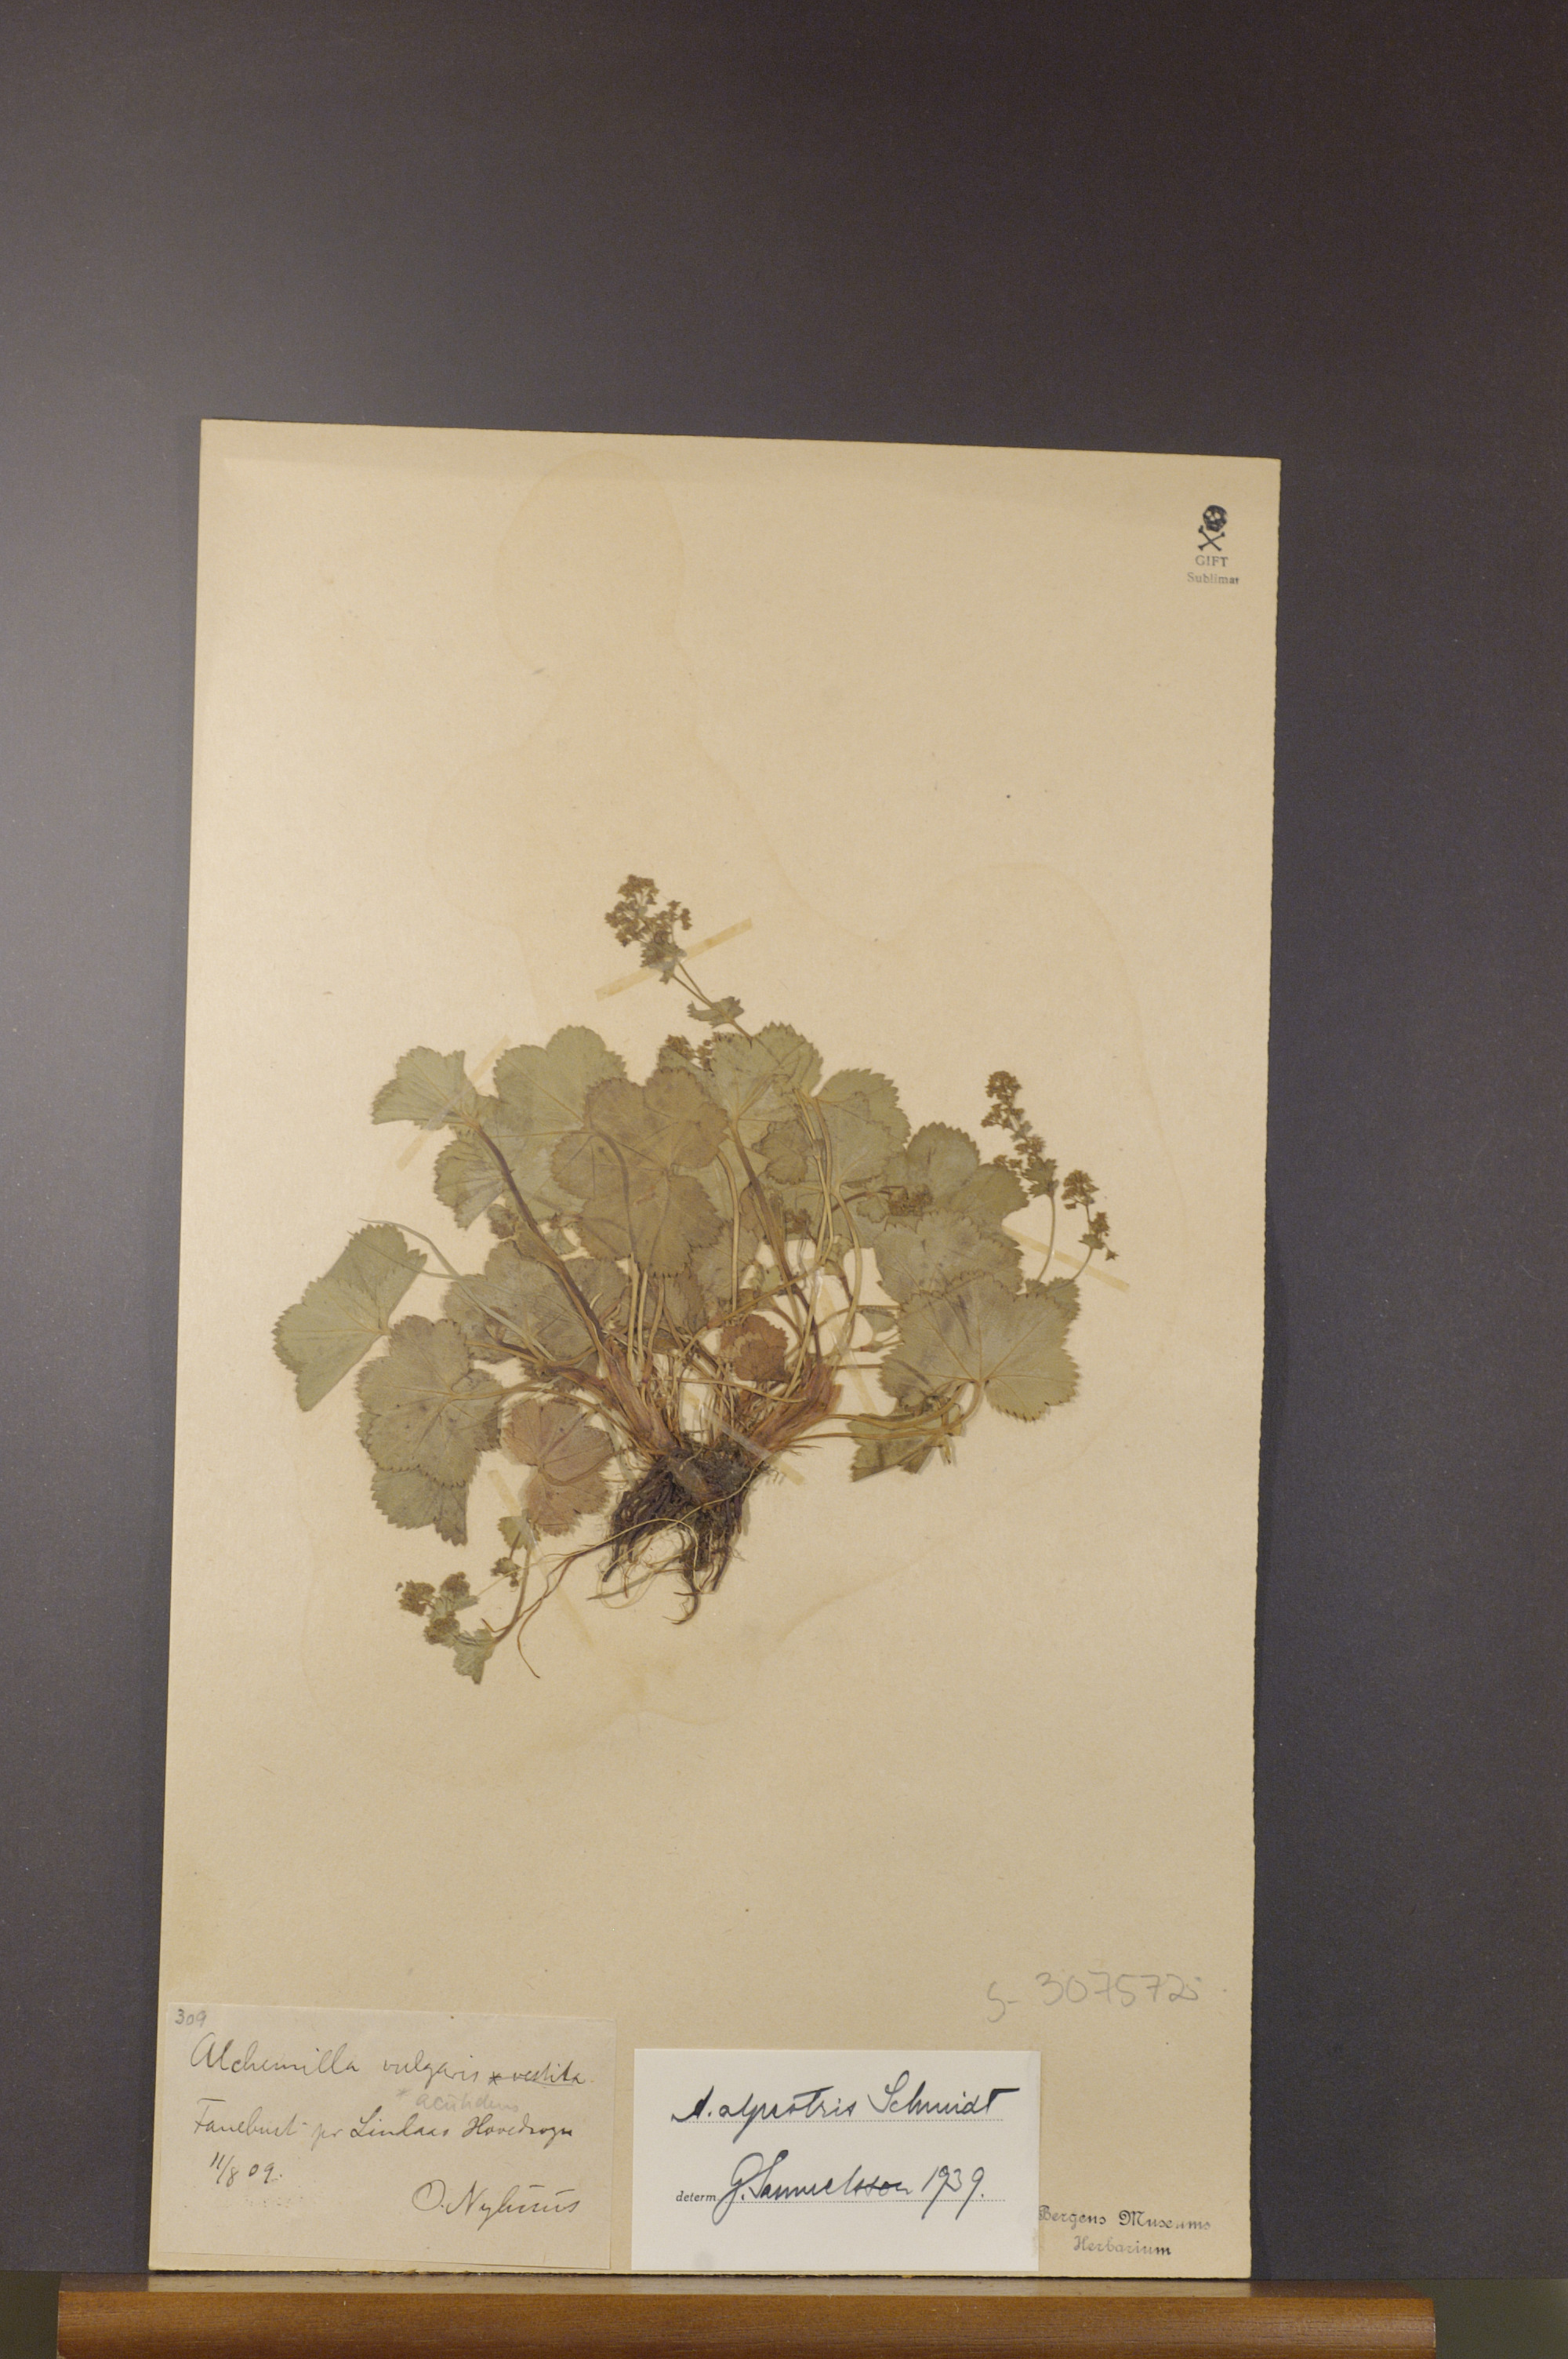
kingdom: Plantae
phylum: Tracheophyta
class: Magnoliopsida
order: Rosales
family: Rosaceae
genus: Alchemilla
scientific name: Alchemilla glabra
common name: Smooth lady's-mantle
